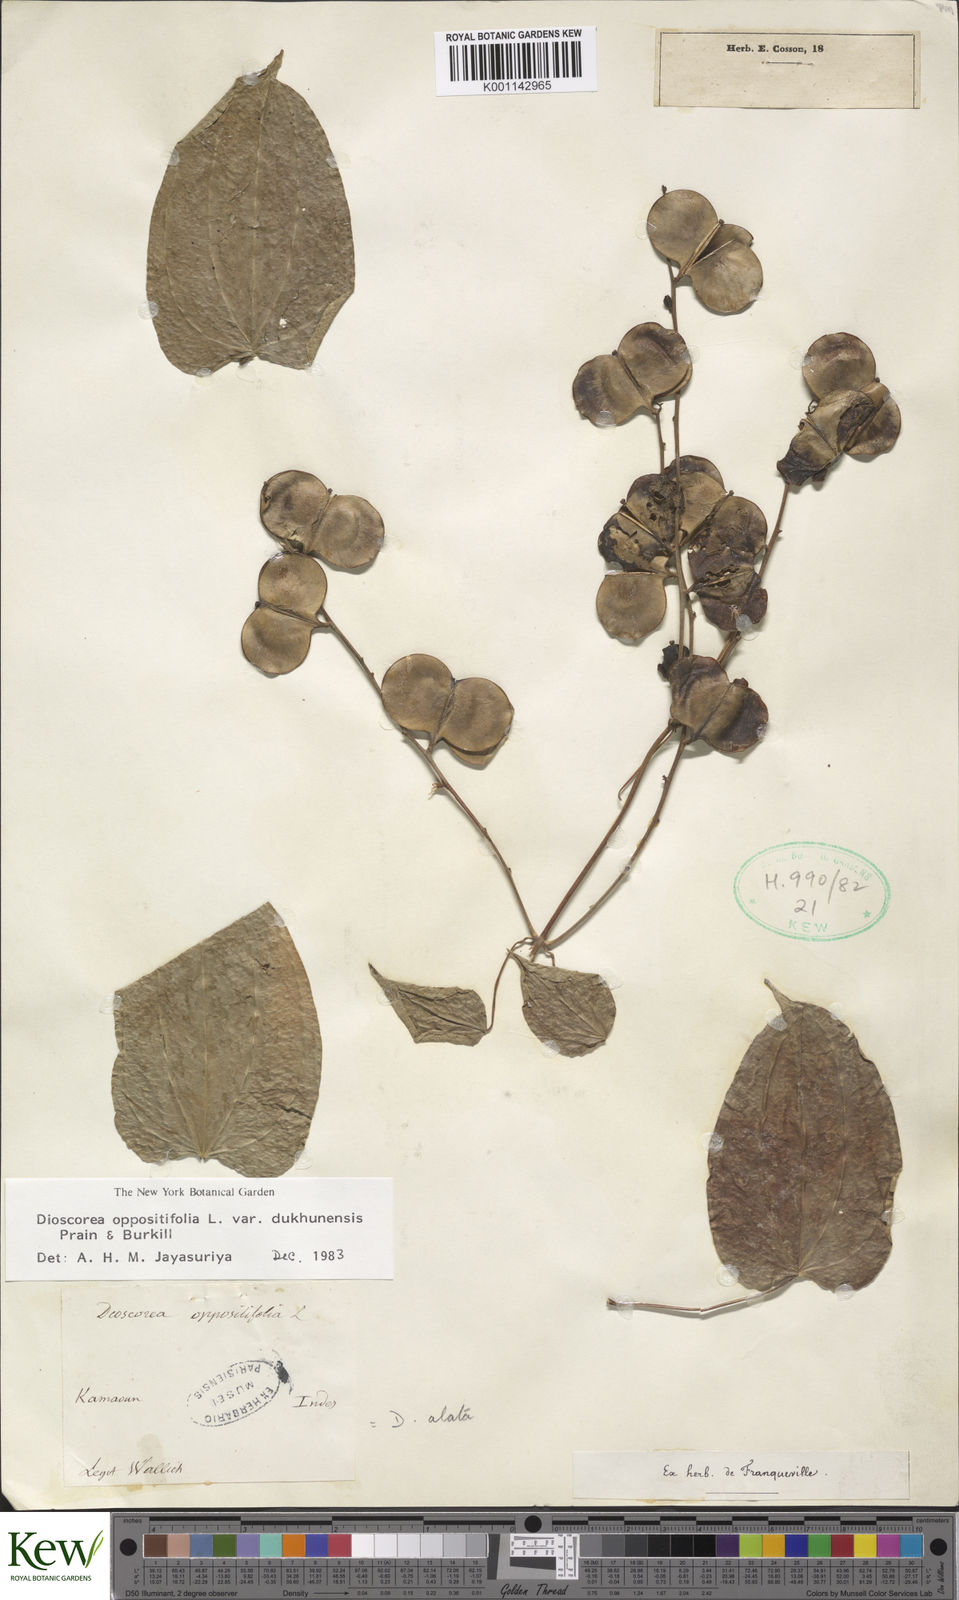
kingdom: Plantae
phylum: Tracheophyta
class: Liliopsida
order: Dioscoreales
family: Dioscoreaceae
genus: Dioscorea
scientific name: Dioscorea oppositifolia
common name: Chinese yam
